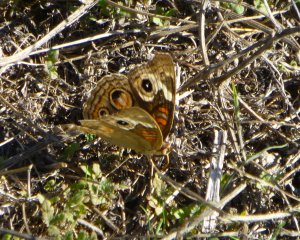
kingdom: Animalia
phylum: Arthropoda
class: Insecta
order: Lepidoptera
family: Nymphalidae
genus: Junonia
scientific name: Junonia coenia
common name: Common Buckeye
